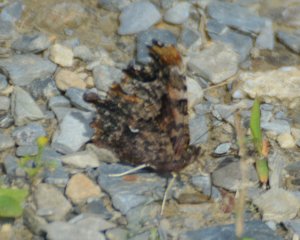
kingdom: Animalia
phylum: Arthropoda
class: Insecta
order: Lepidoptera
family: Nymphalidae
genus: Polygonia
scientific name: Polygonia faunus
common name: Green Comma
